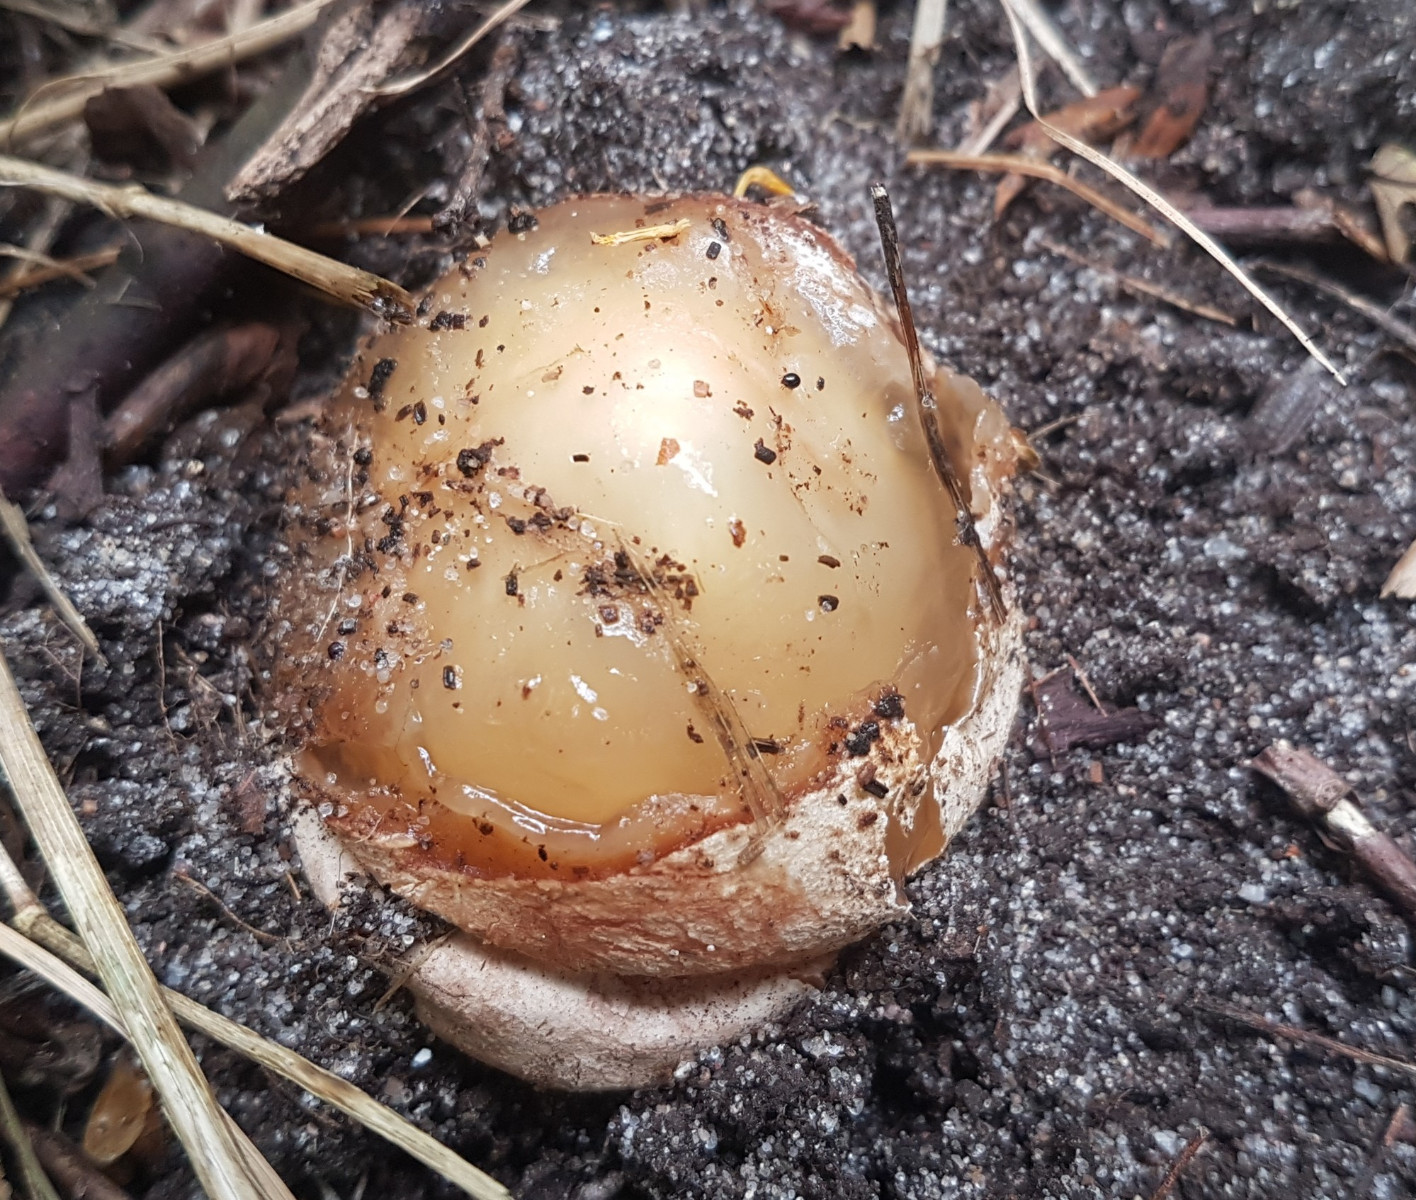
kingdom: Fungi
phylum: Basidiomycota
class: Agaricomycetes
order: Phallales
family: Phallaceae
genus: Phallus
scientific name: Phallus impudicus
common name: almindelig stinksvamp
